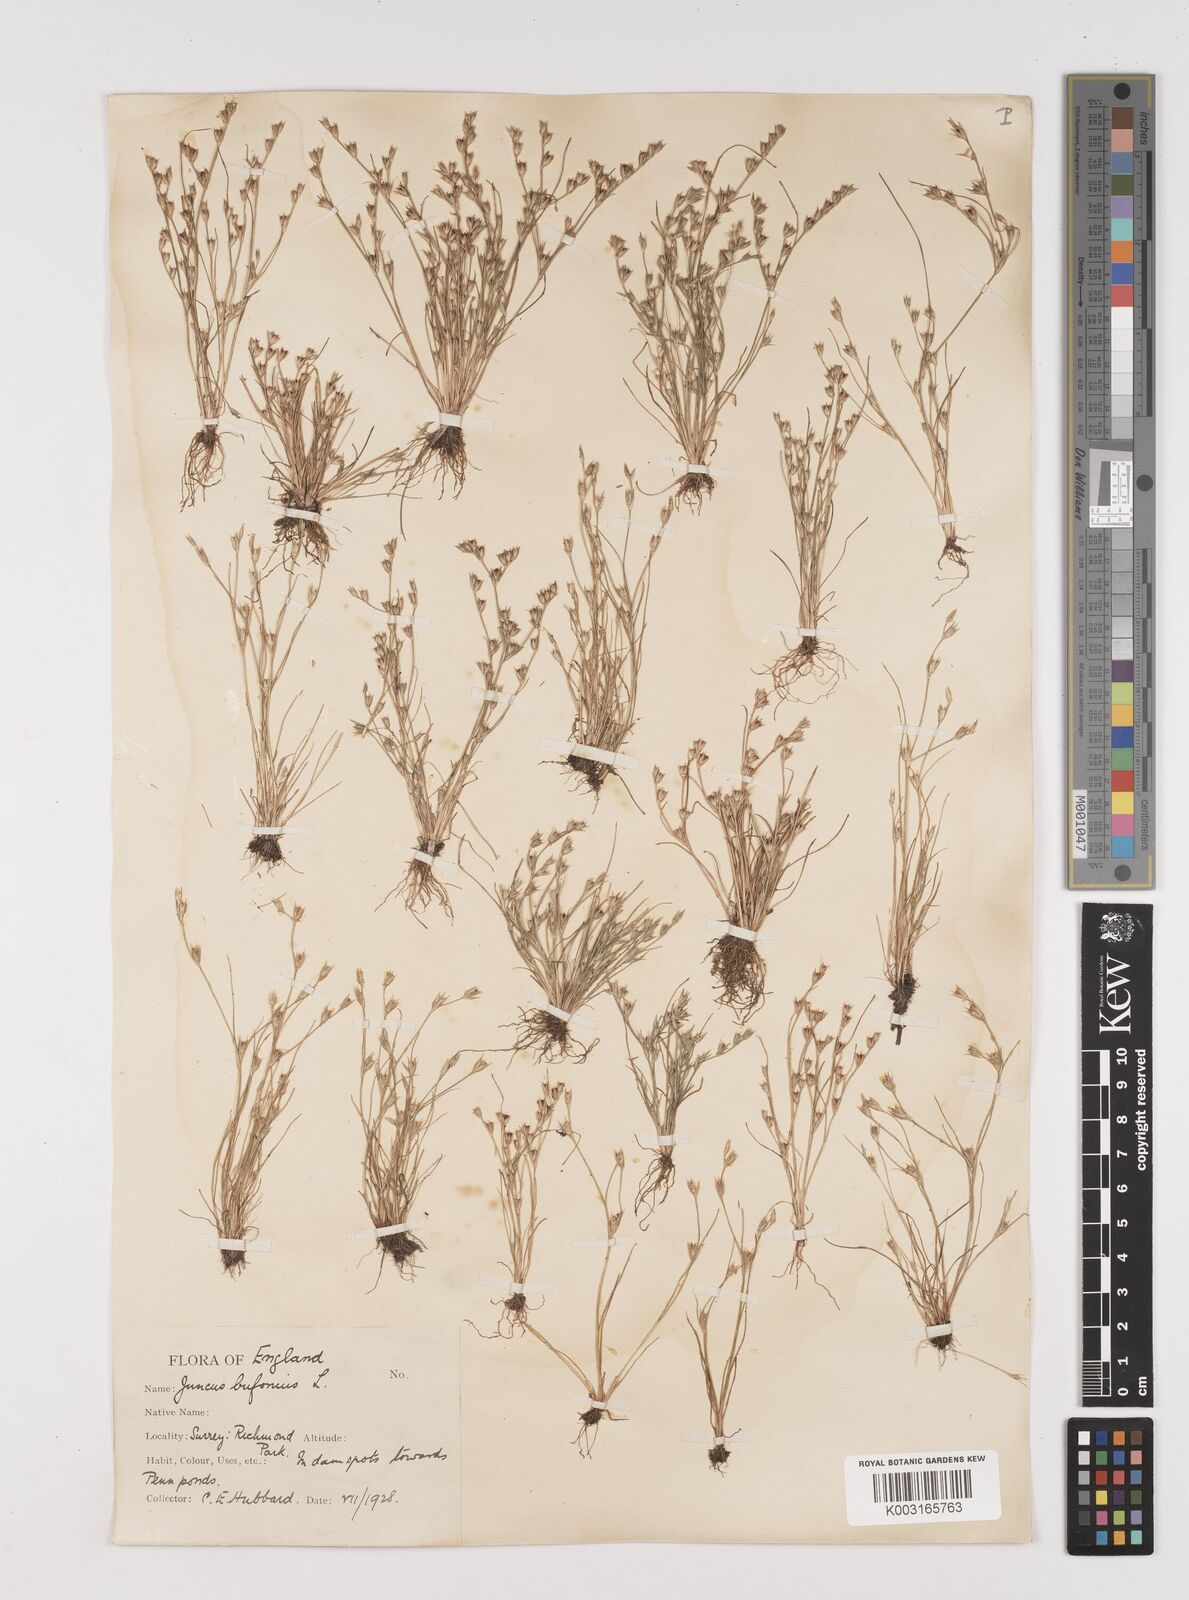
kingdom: Plantae
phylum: Tracheophyta
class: Liliopsida
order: Poales
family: Juncaceae
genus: Juncus
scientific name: Juncus bufonius
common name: Toad rush
